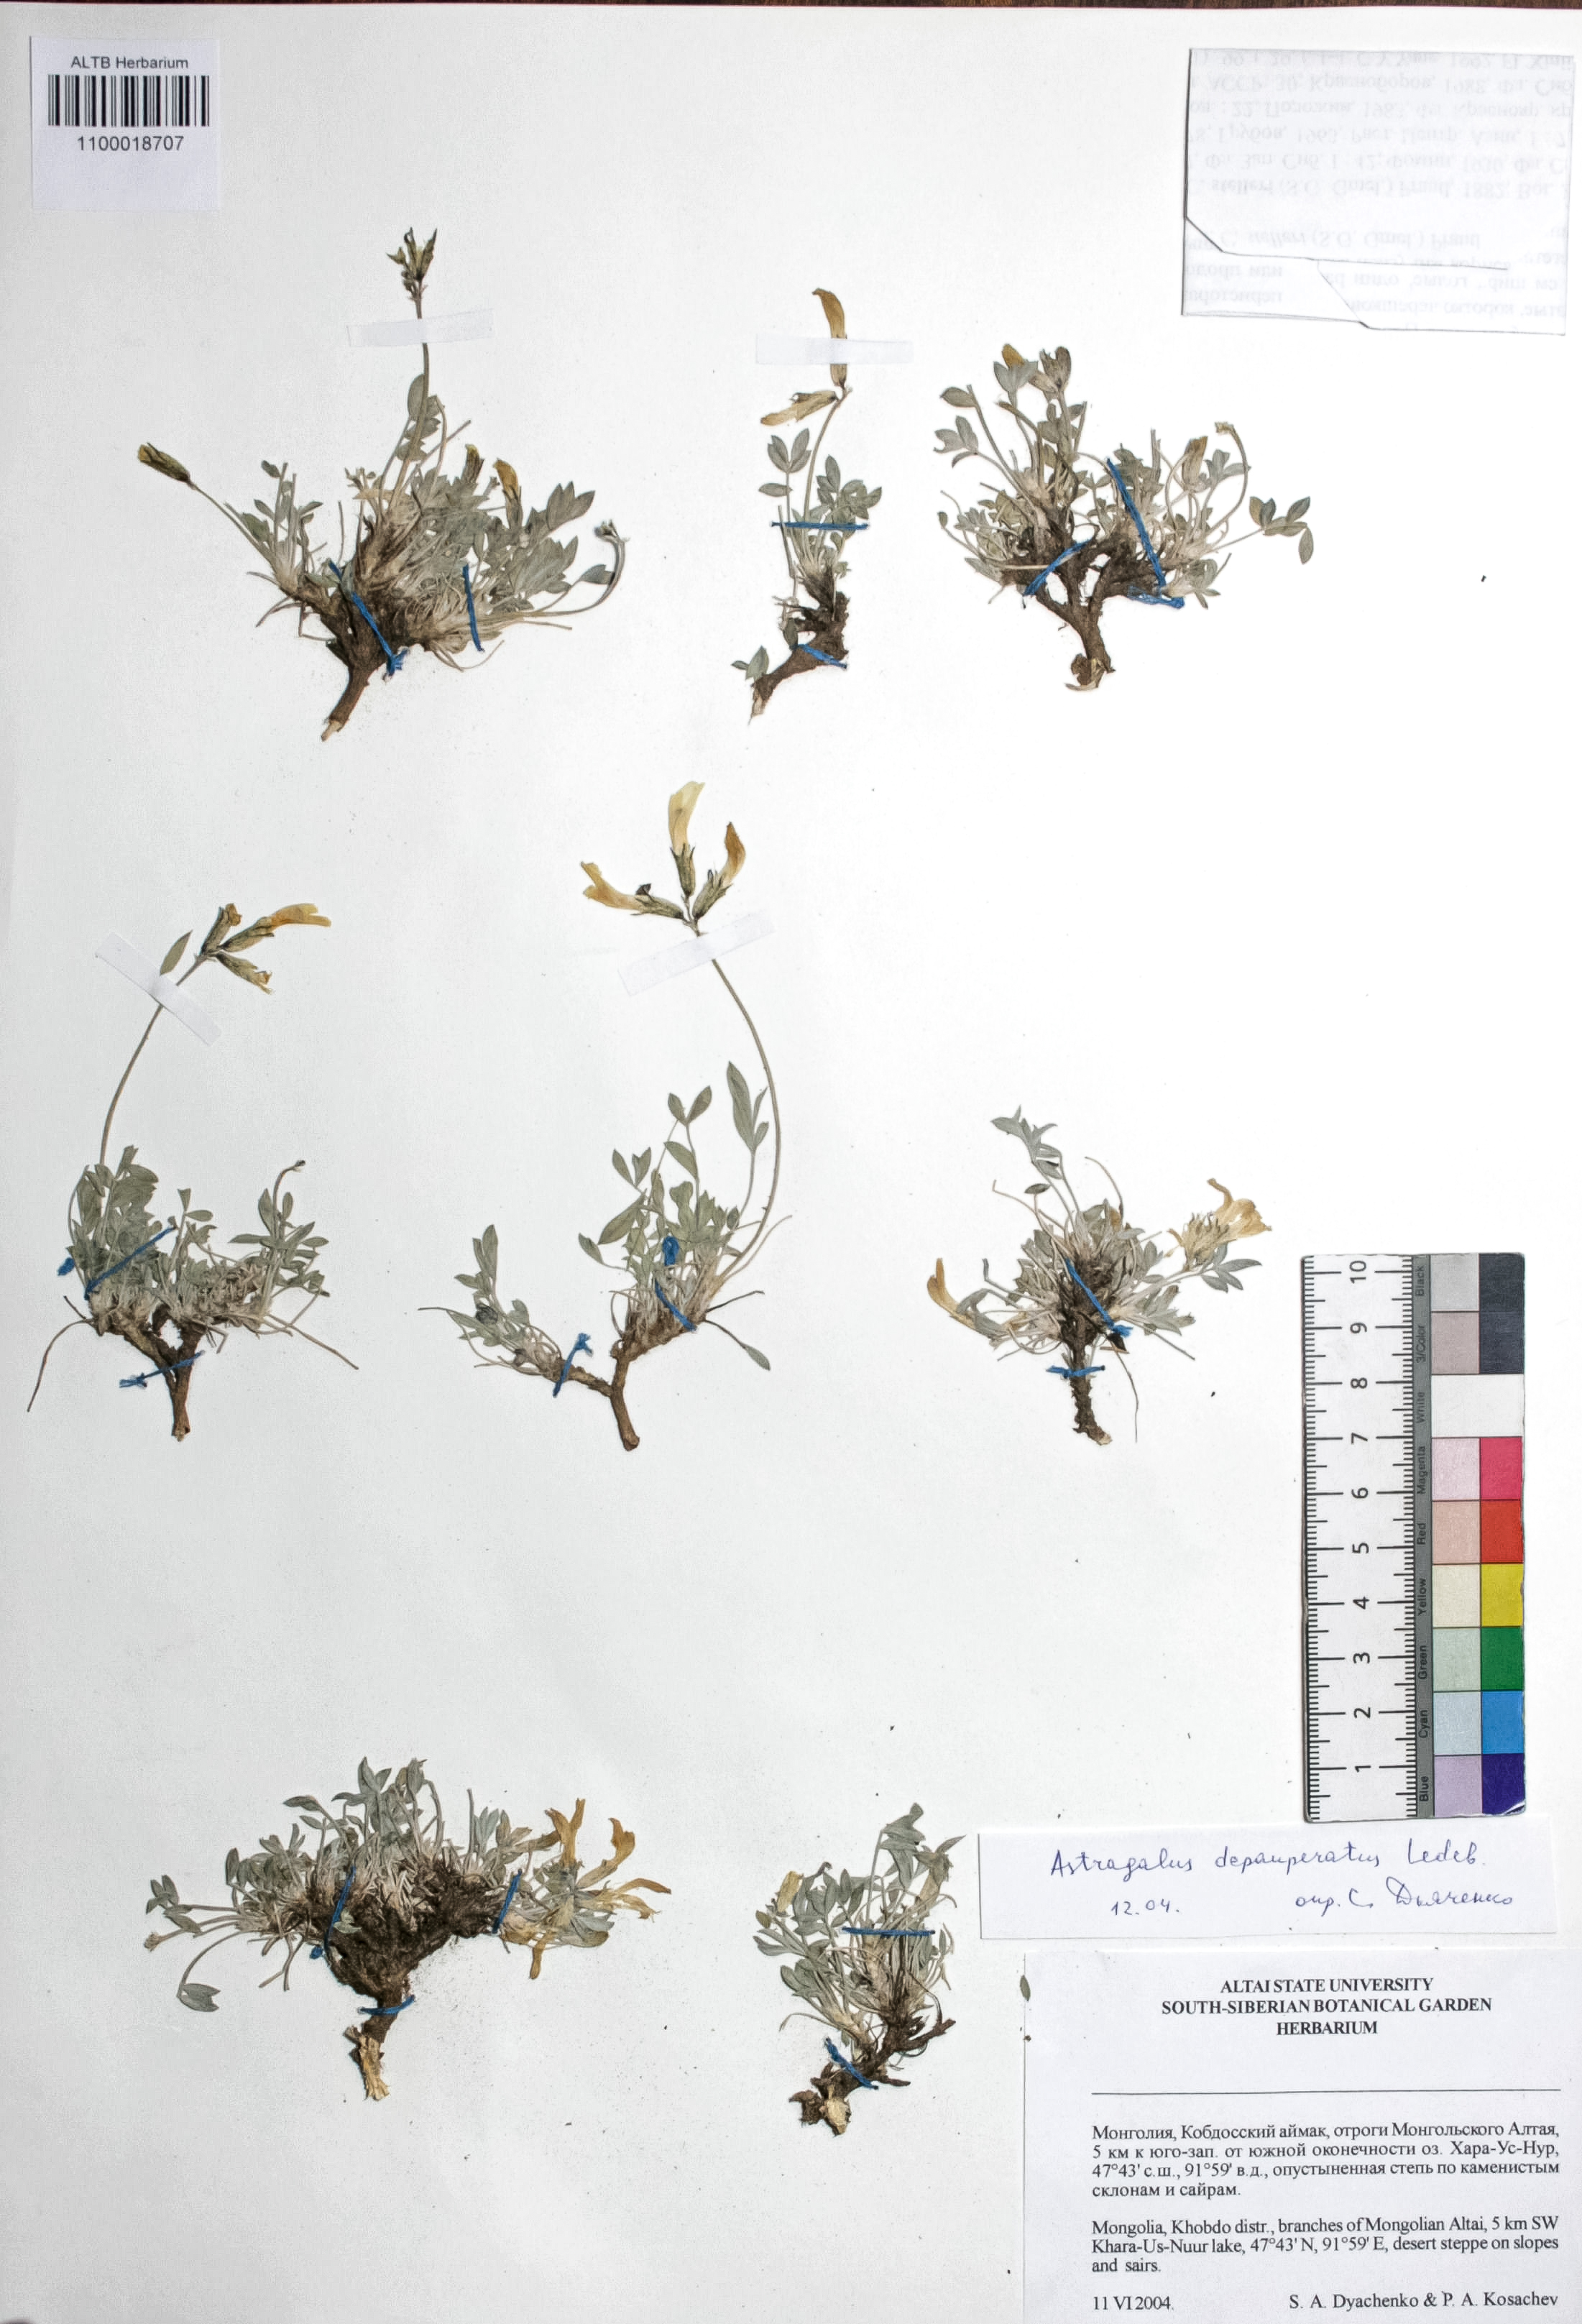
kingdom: Plantae
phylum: Tracheophyta
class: Magnoliopsida
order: Fabales
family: Fabaceae
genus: Astragalus
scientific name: Astragalus depauperatus
